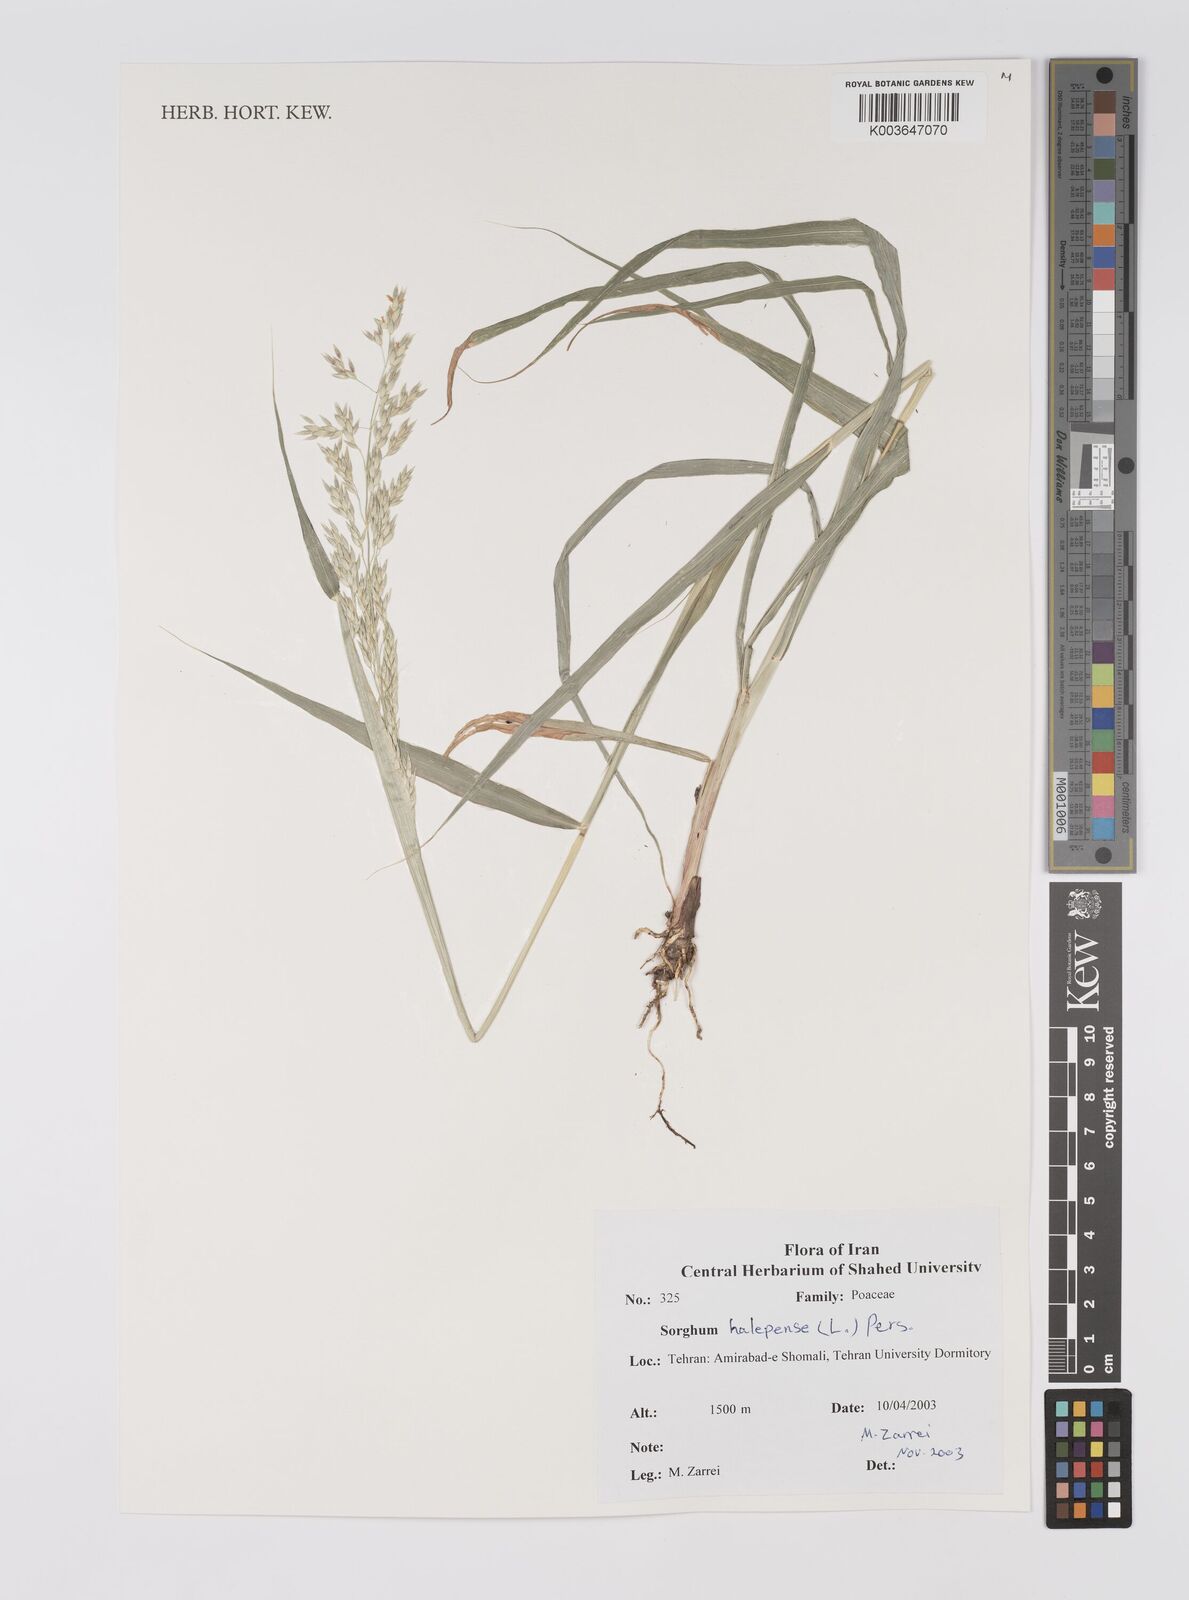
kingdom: Plantae
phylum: Tracheophyta
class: Liliopsida
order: Poales
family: Poaceae
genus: Sorghum
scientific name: Sorghum halepense
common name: Johnson-grass
